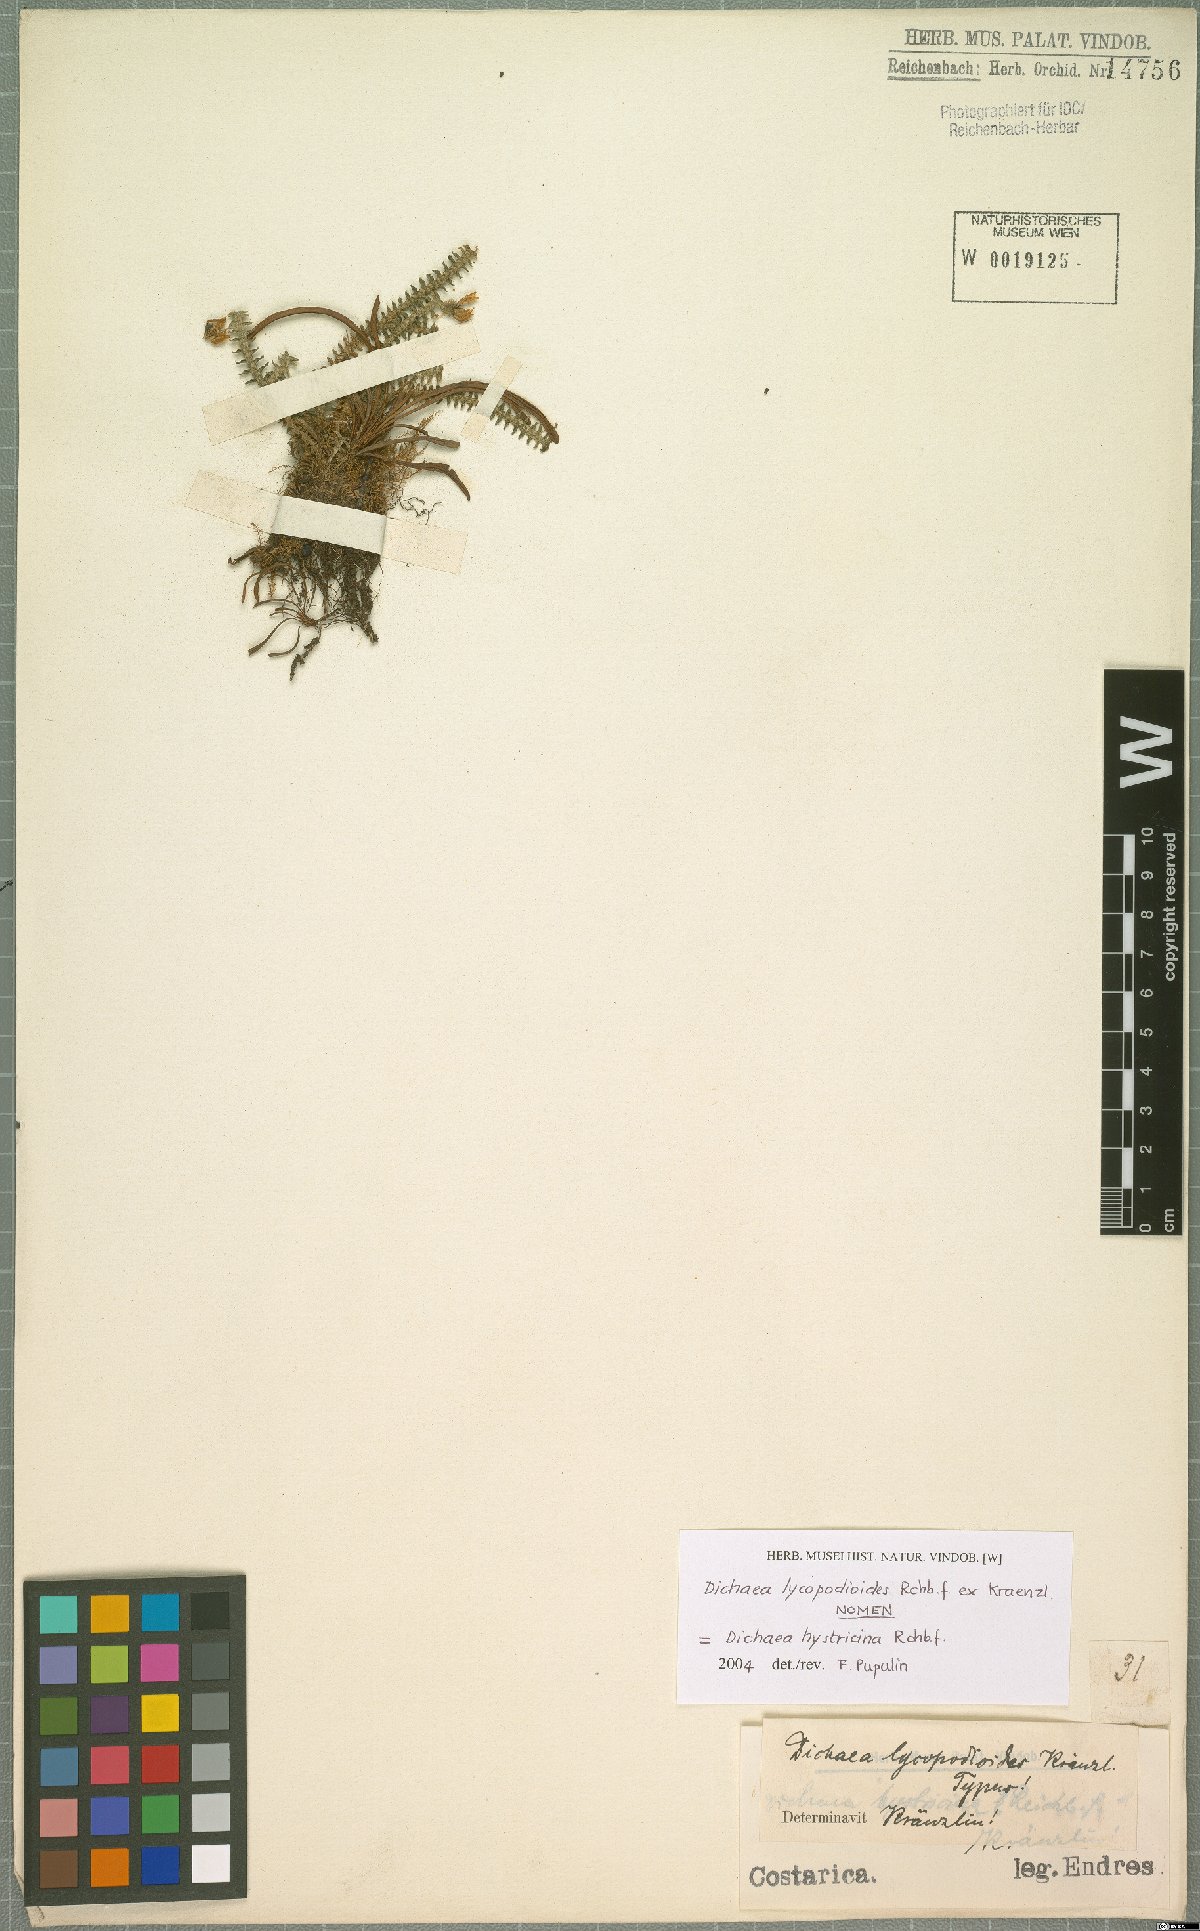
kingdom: Plantae
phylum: Tracheophyta
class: Liliopsida
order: Asparagales
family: Orchidaceae
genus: Dichaea
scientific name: Dichaea hystricina
